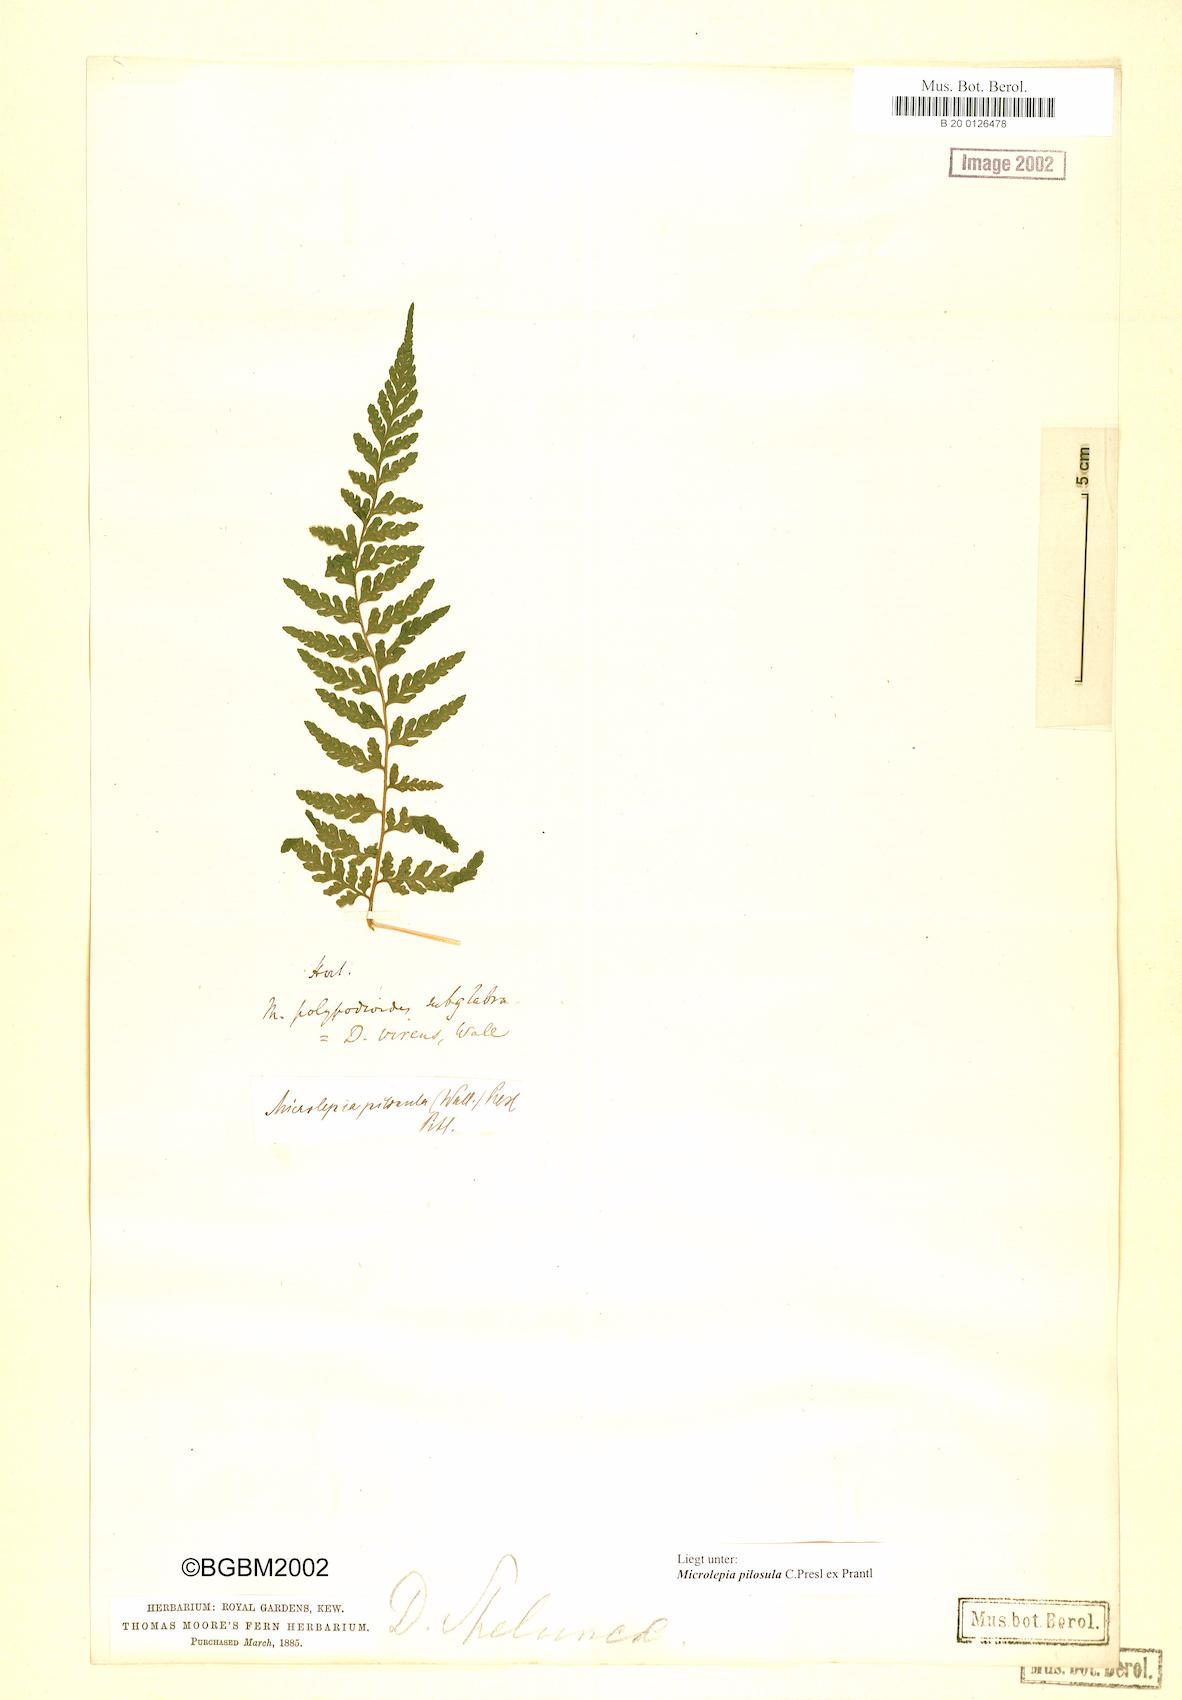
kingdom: Plantae
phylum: Tracheophyta
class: Polypodiopsida
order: Polypodiales
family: Dennstaedtiaceae
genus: Microlepia
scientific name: Microlepia speluncae
